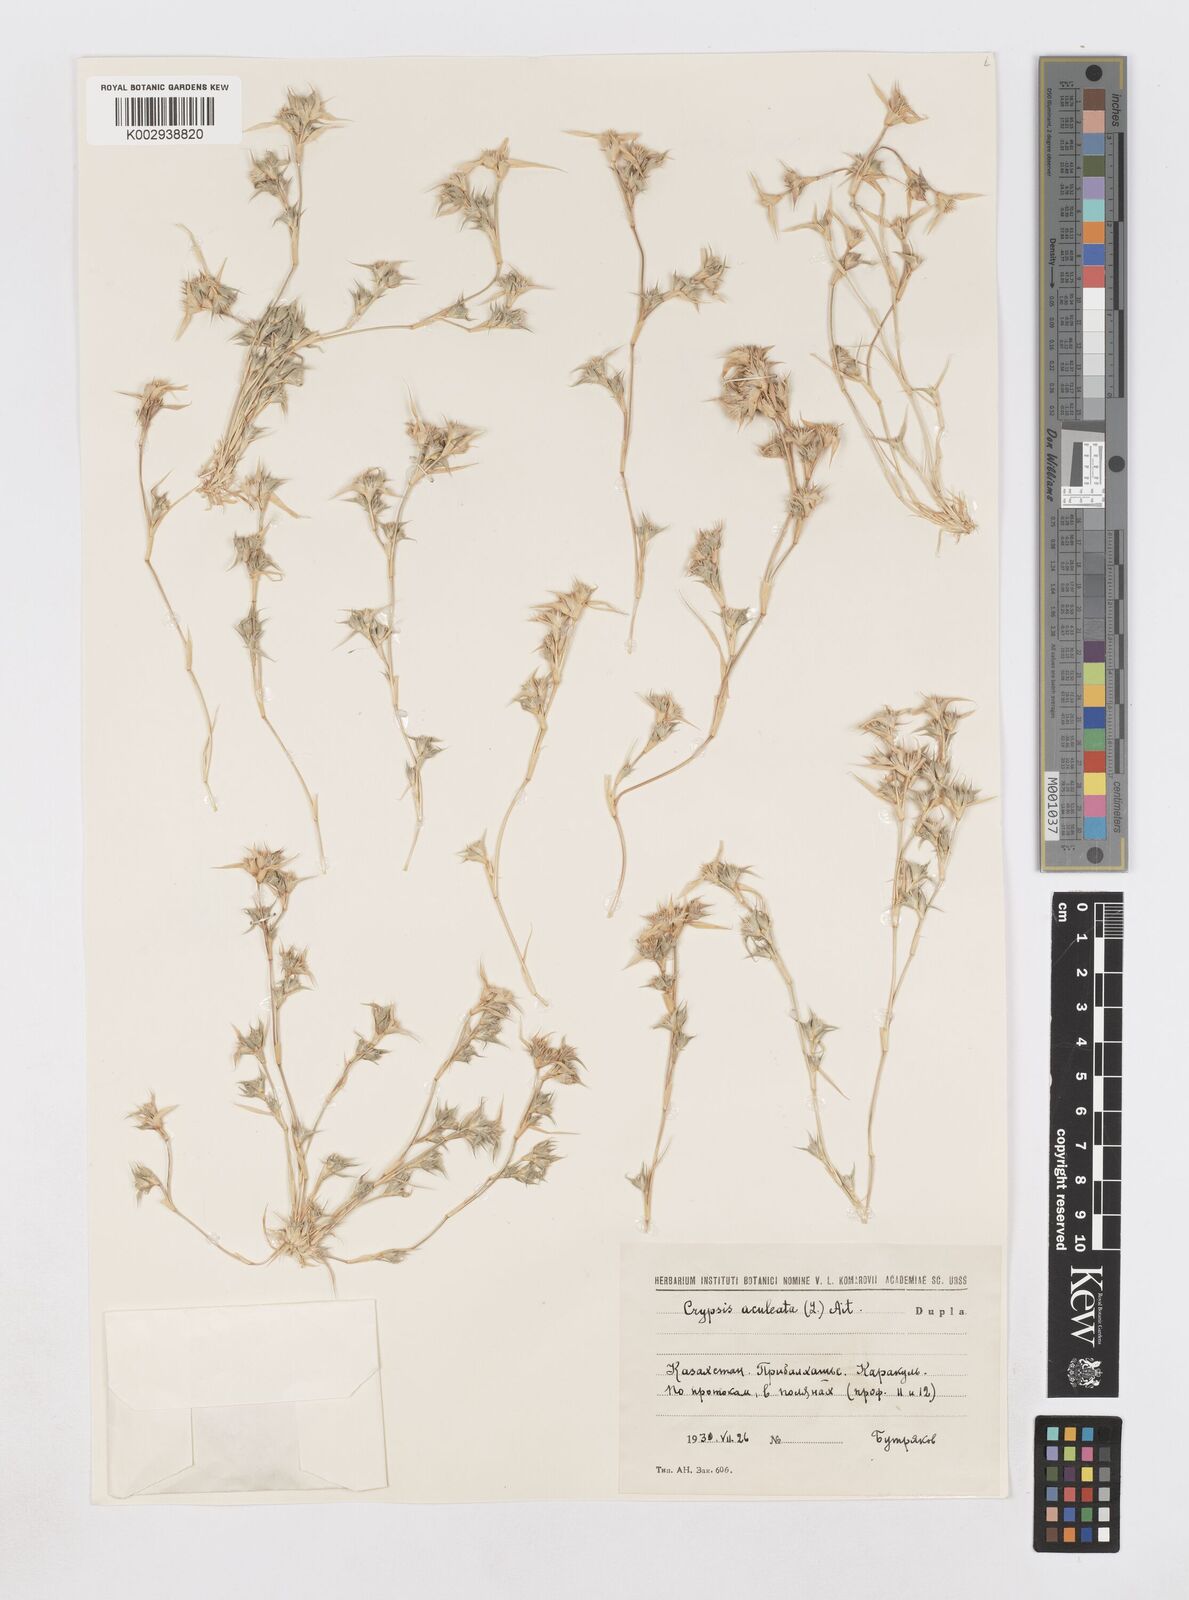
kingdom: Plantae
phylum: Tracheophyta
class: Liliopsida
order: Poales
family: Poaceae
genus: Sporobolus
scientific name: Sporobolus aculeatus
